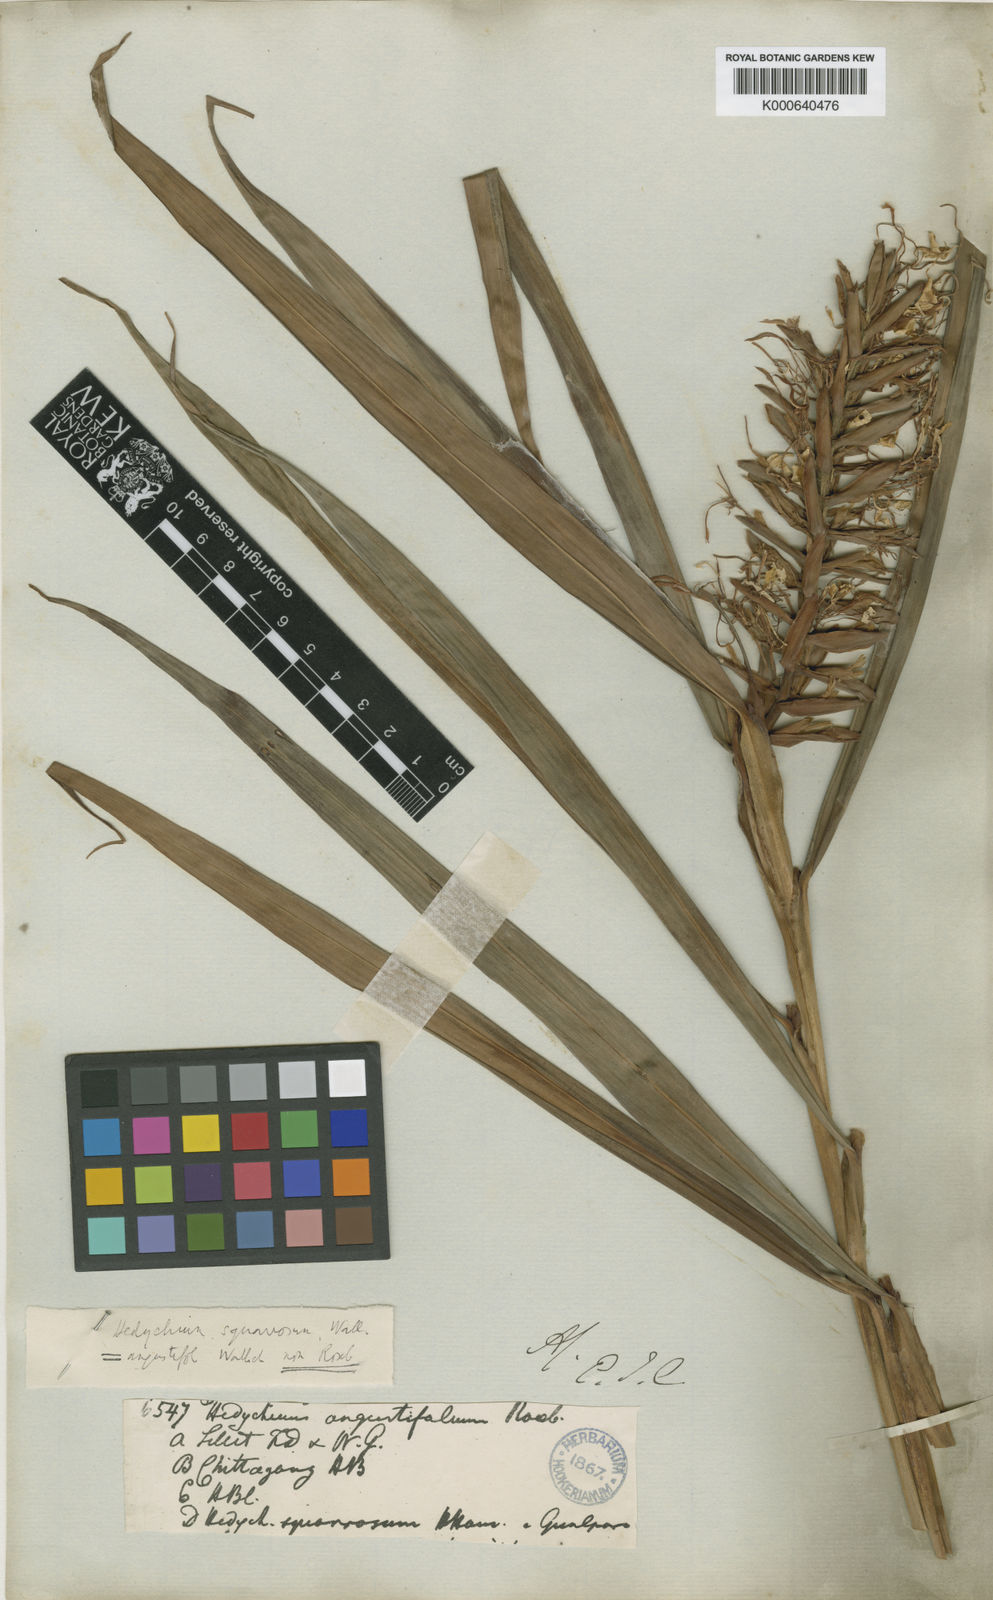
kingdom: Plantae
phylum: Tracheophyta
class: Liliopsida
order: Zingiberales
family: Zingiberaceae
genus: Hedychium
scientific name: Hedychium coccineum
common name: Red ginger-lily
